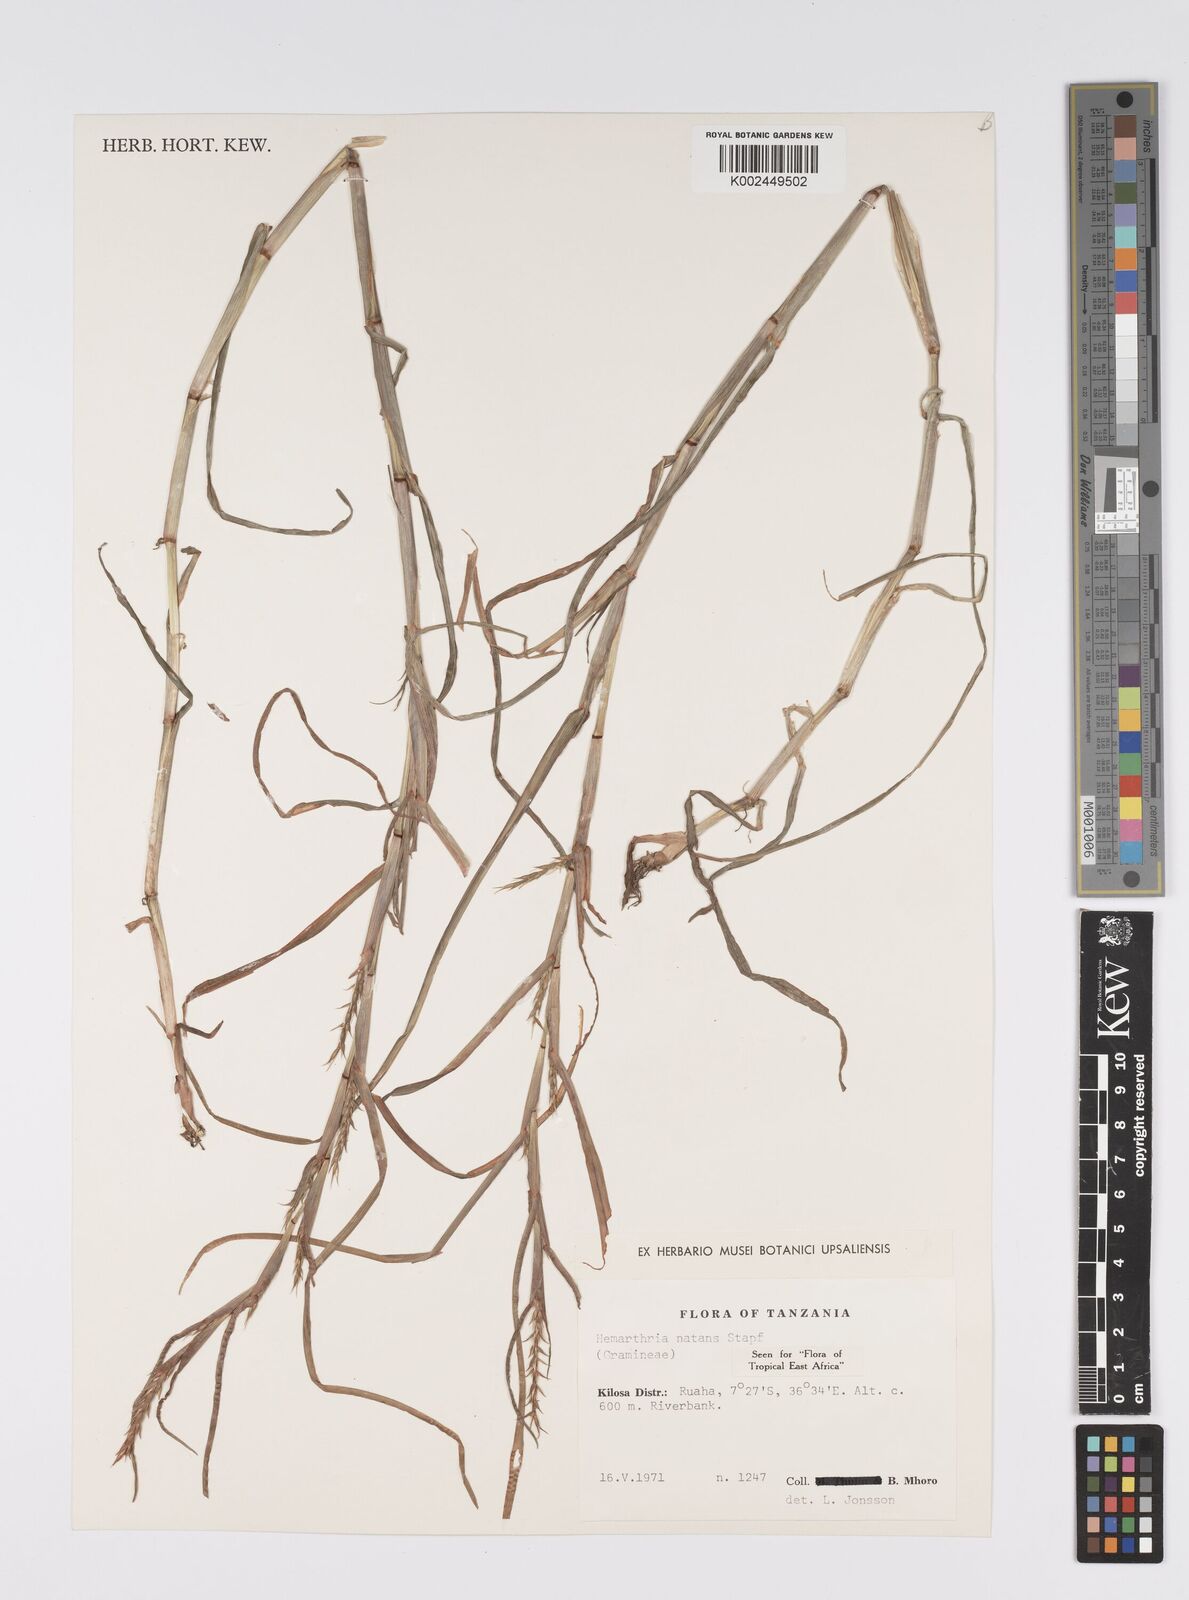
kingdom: Plantae
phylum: Tracheophyta
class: Liliopsida
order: Poales
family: Poaceae
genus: Hemarthria
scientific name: Hemarthria natans
